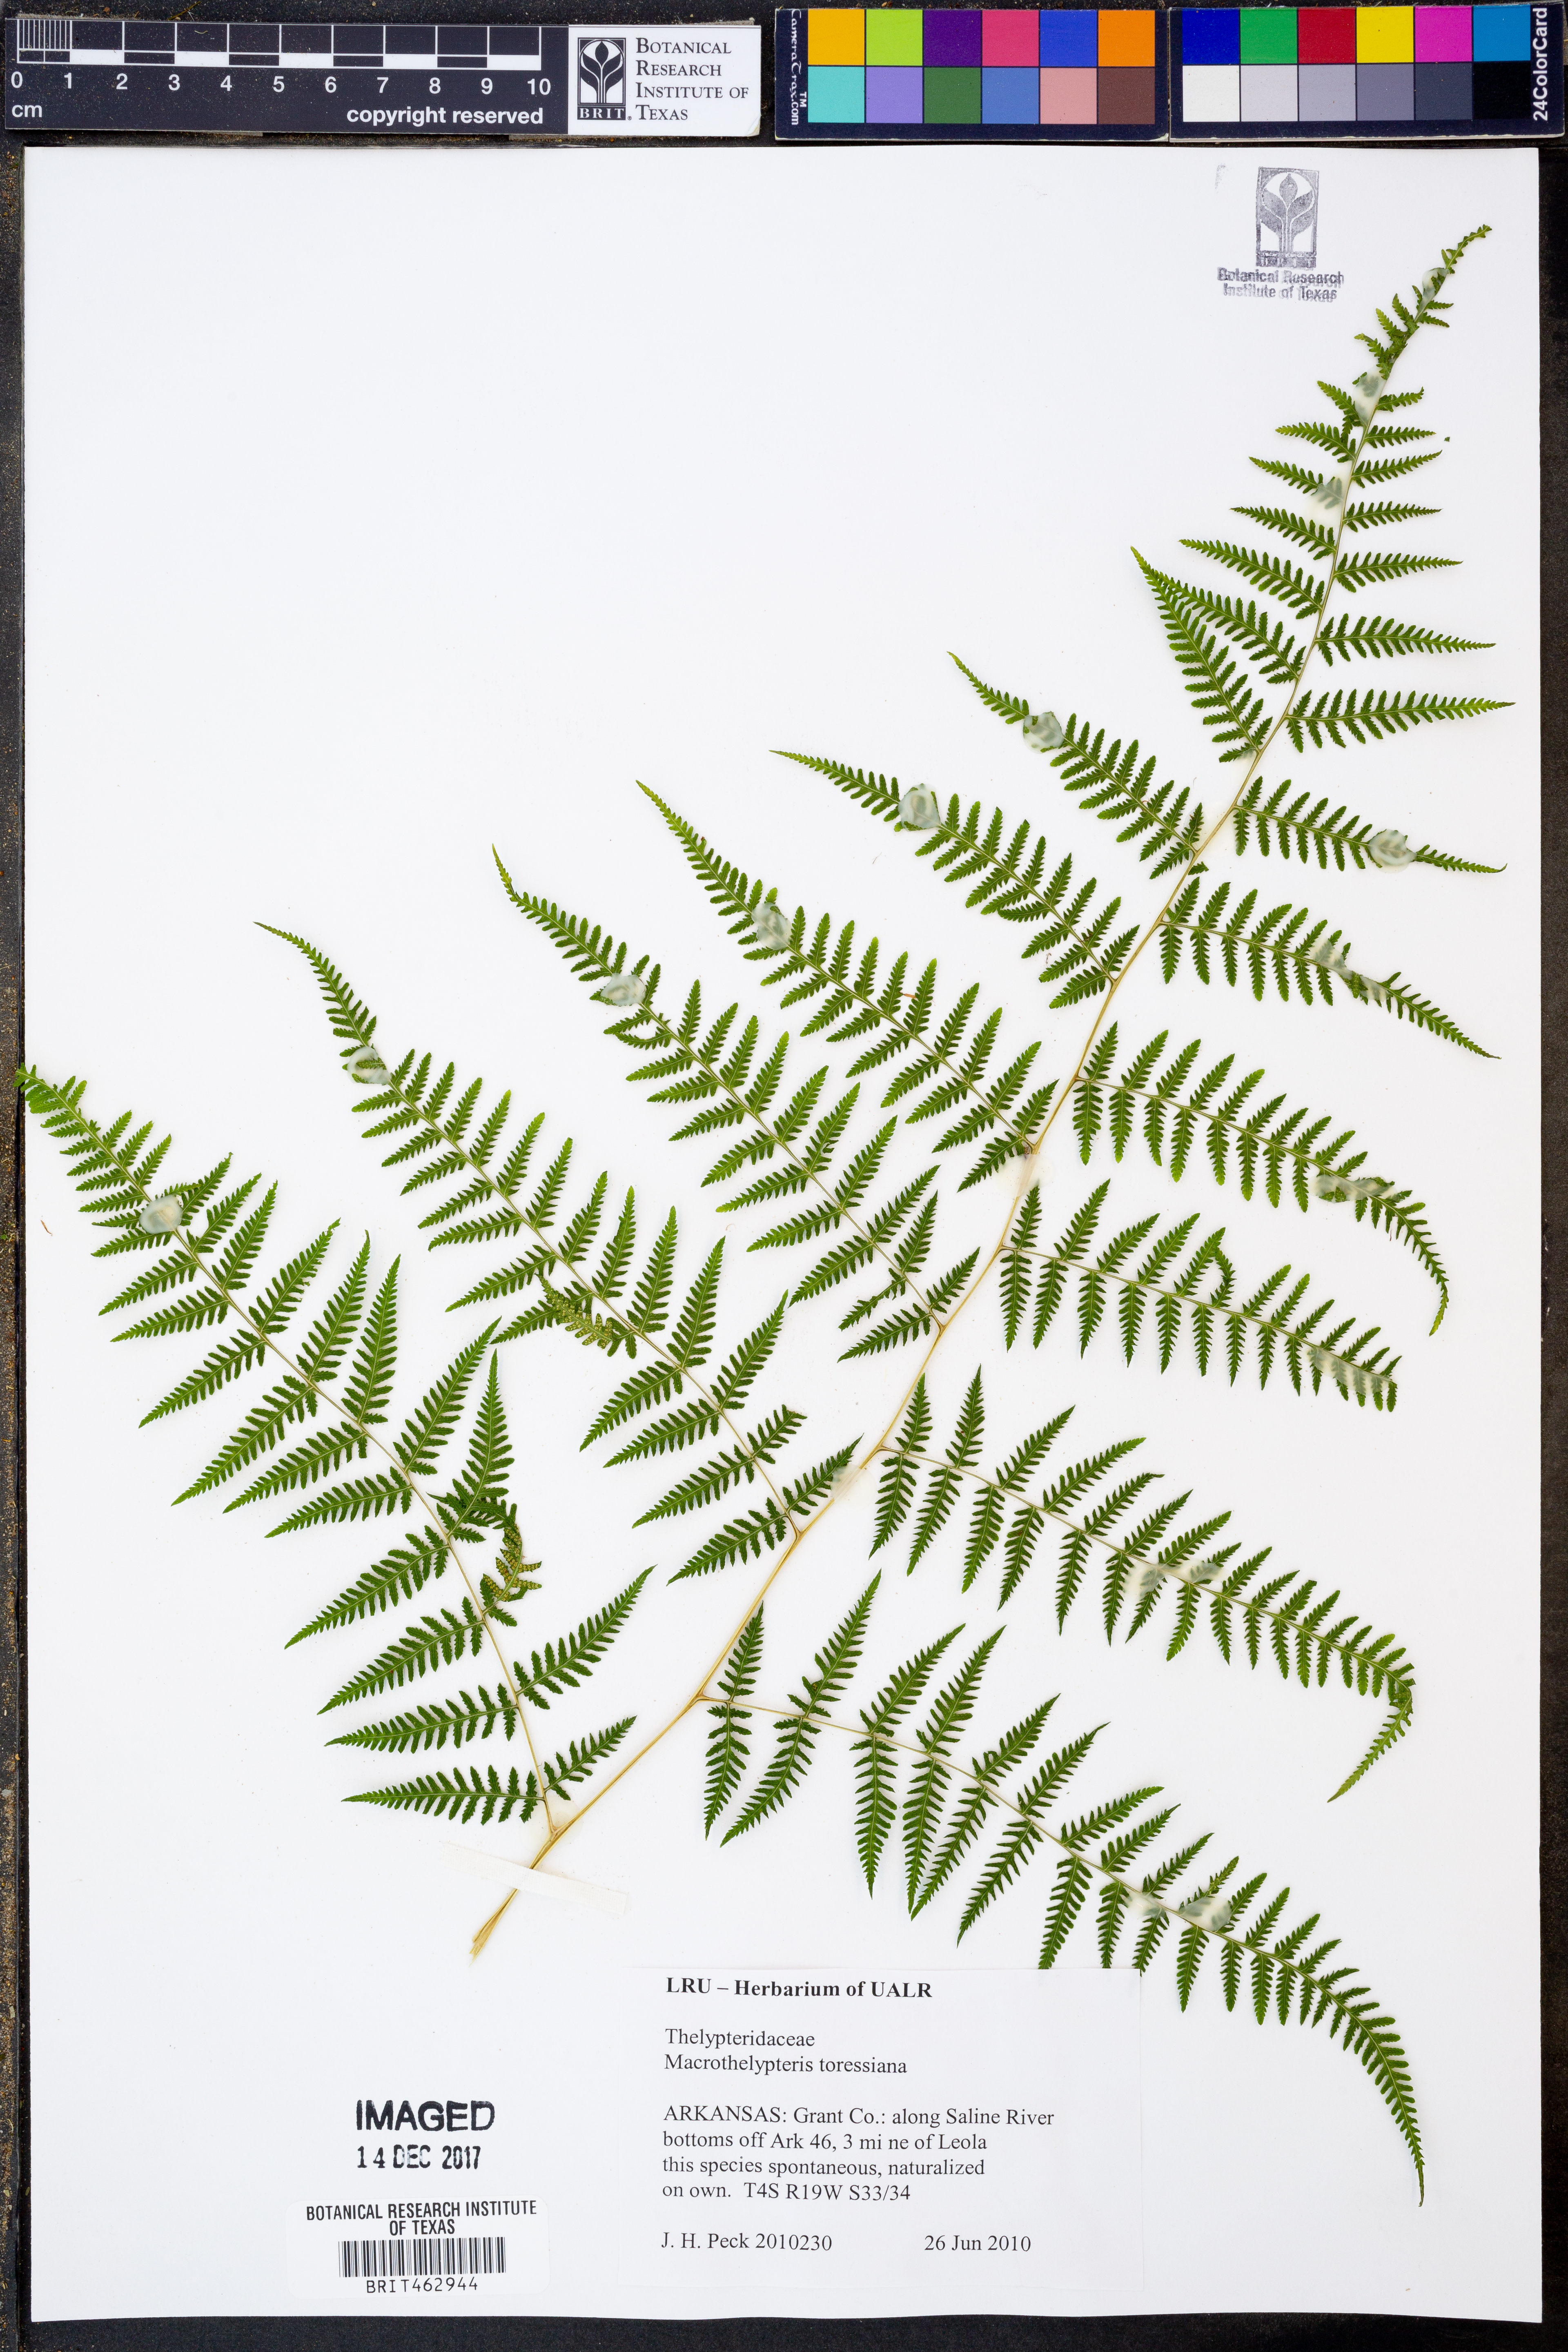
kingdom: Plantae
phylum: Tracheophyta
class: Polypodiopsida
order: Polypodiales
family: Thelypteridaceae
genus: Macrothelypteris
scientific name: Macrothelypteris torresiana
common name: Swordfern
